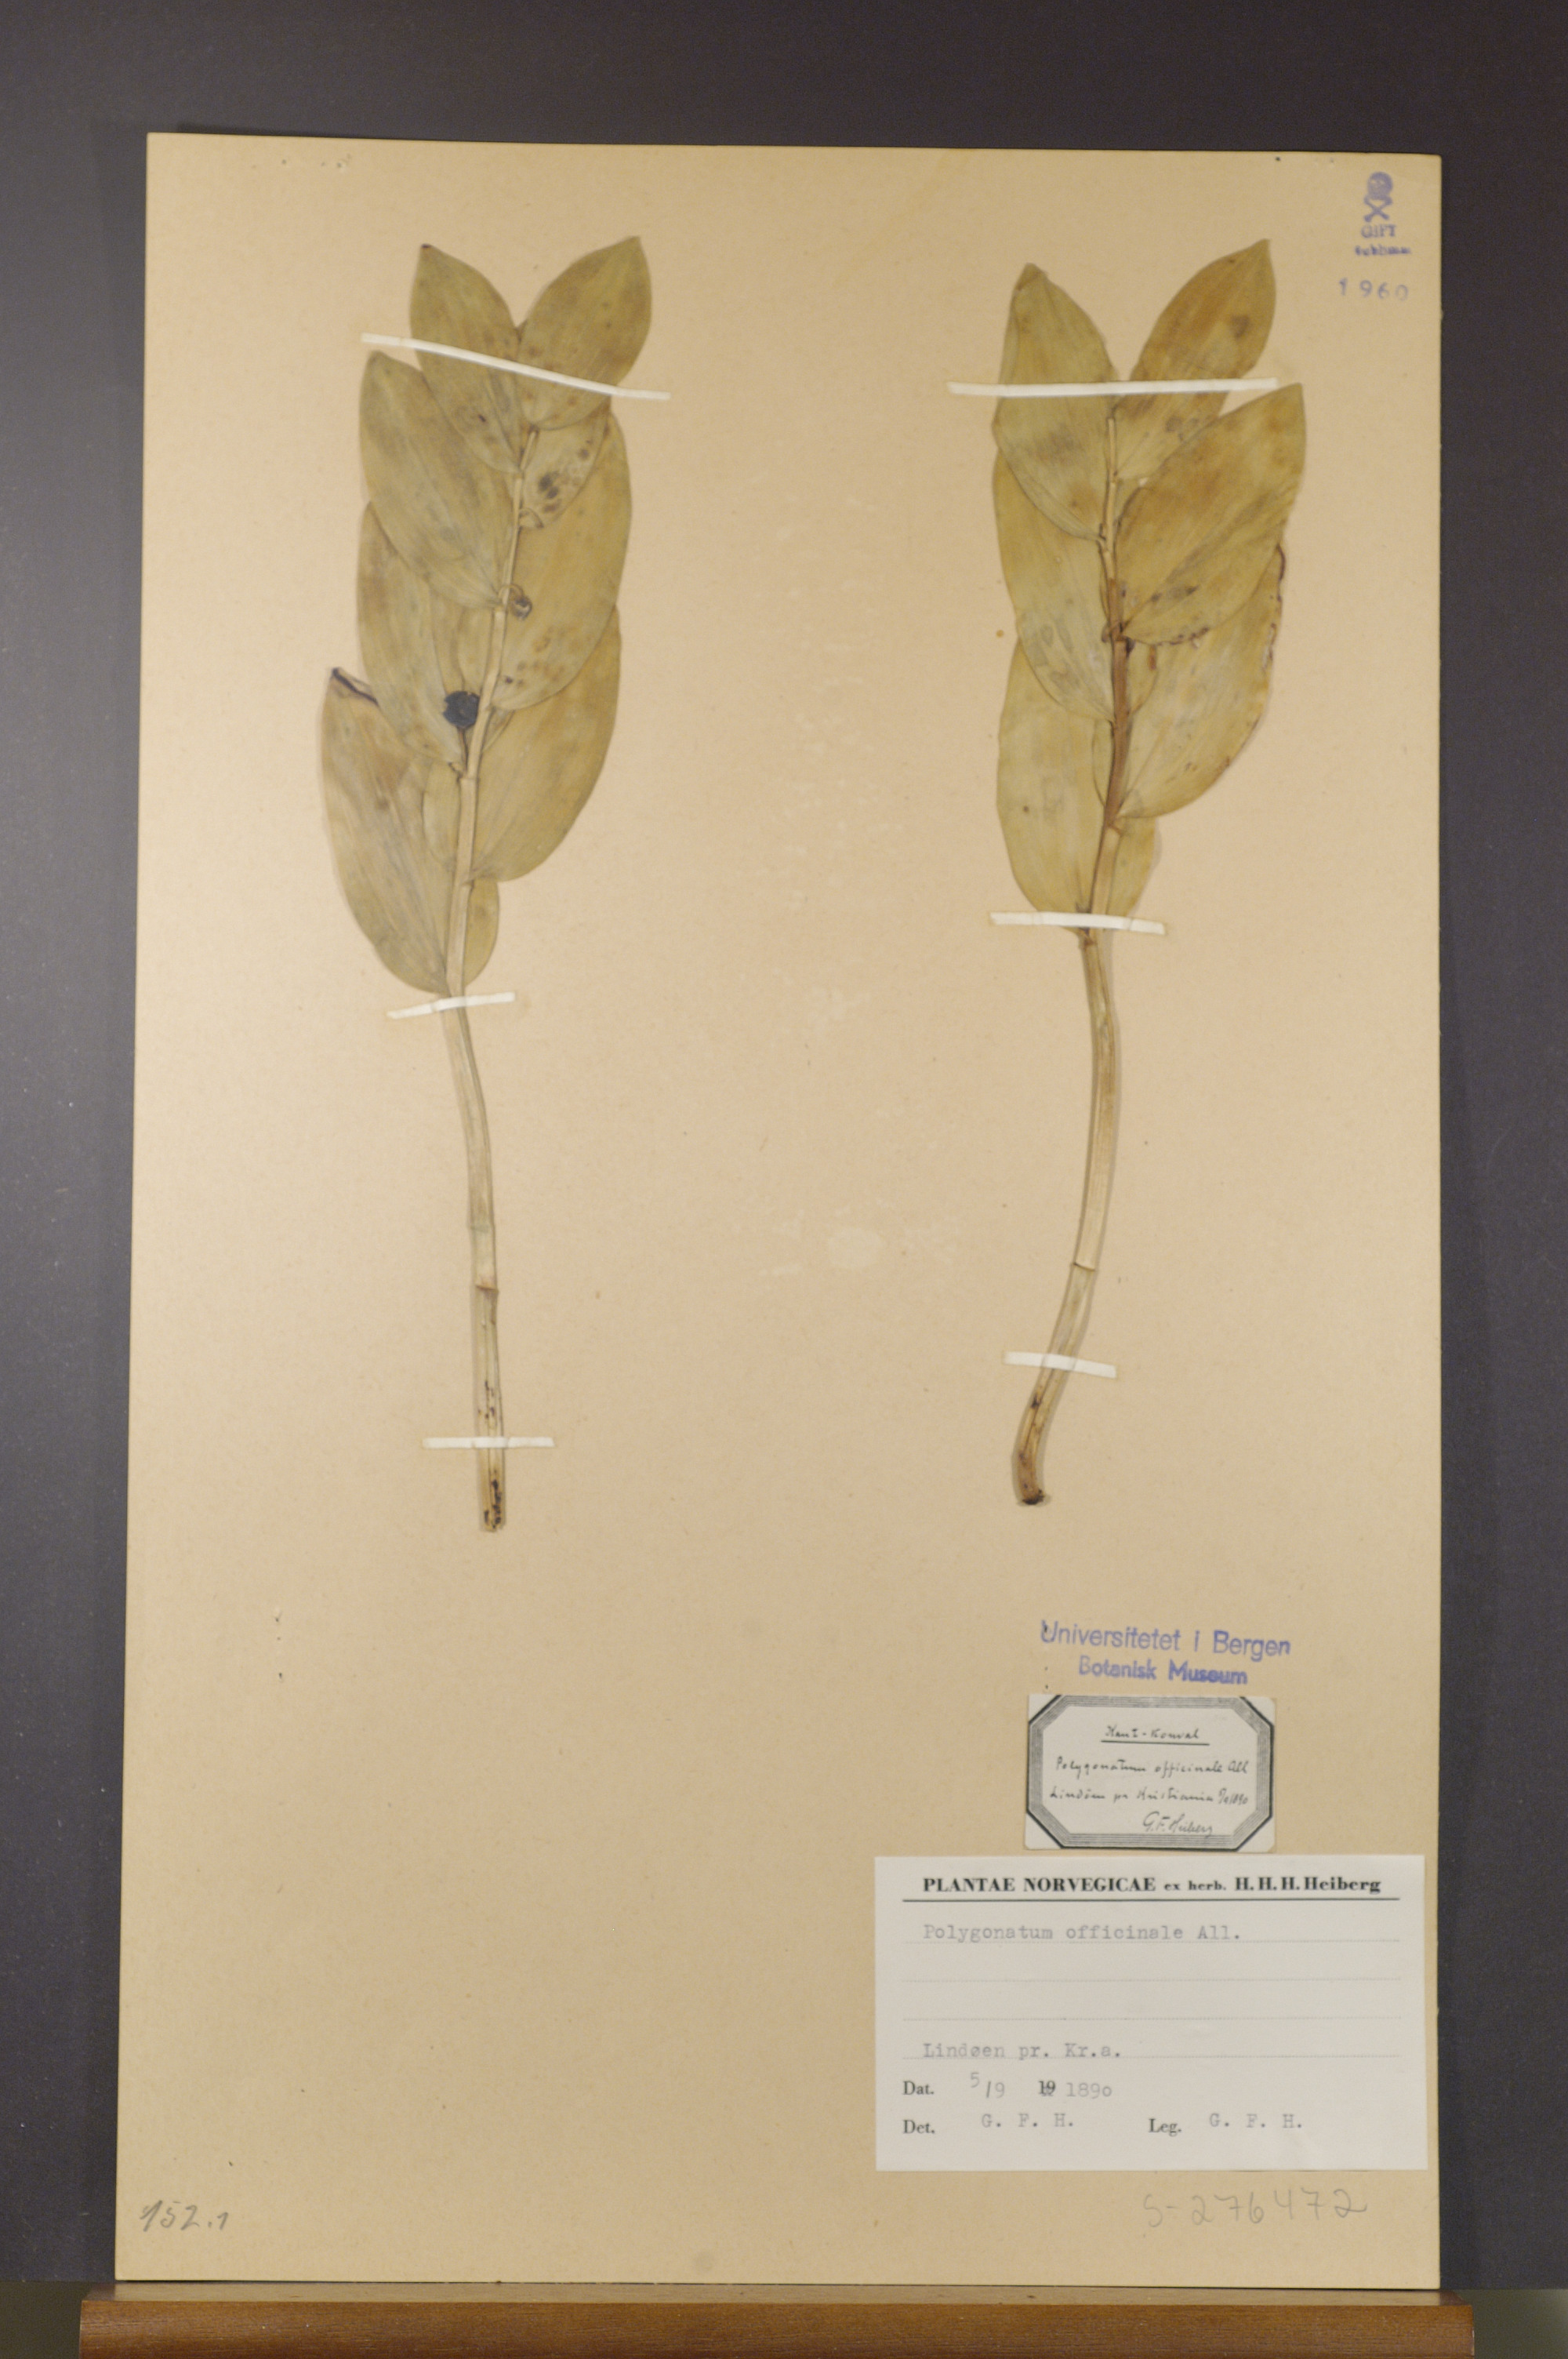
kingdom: Plantae
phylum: Tracheophyta
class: Liliopsida
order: Asparagales
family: Asparagaceae
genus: Polygonatum
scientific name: Polygonatum odoratum
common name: Angular solomon's-seal
